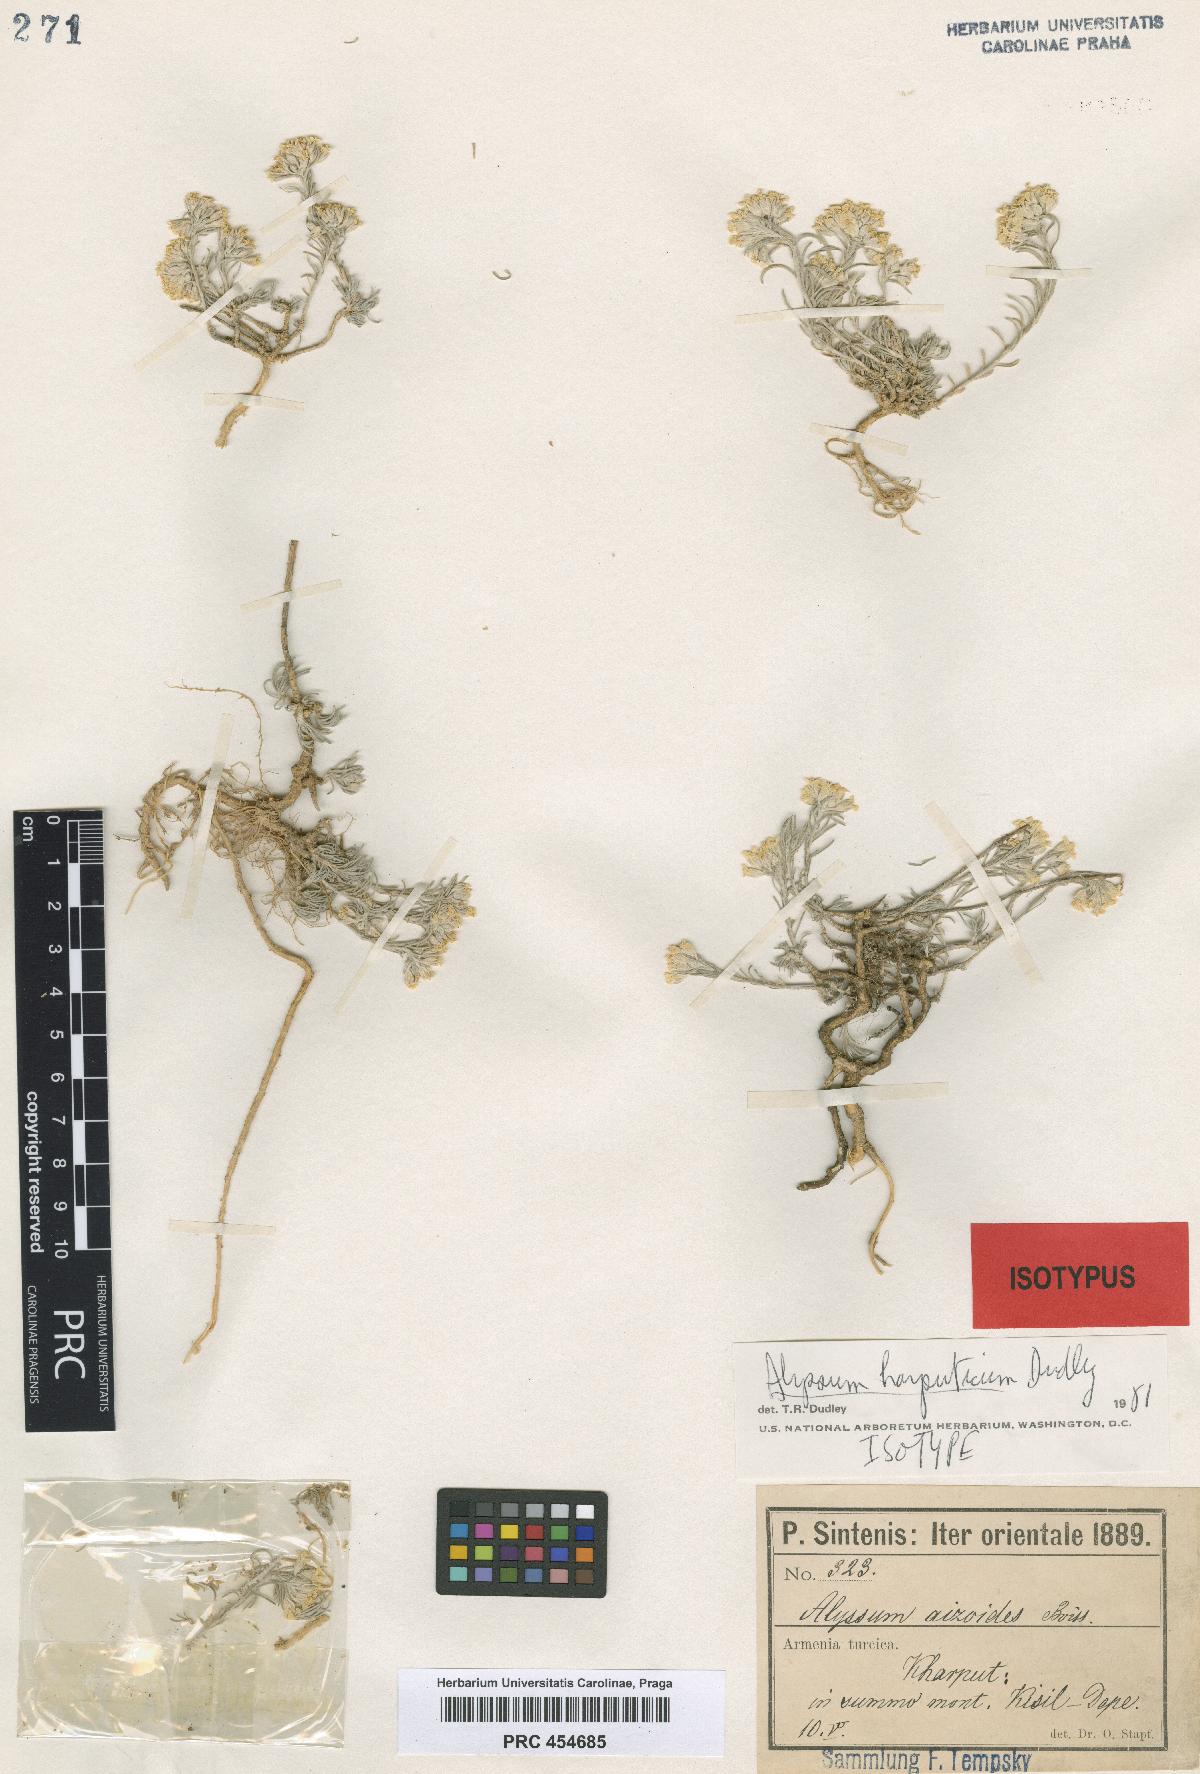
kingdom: Plantae
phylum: Tracheophyta
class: Magnoliopsida
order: Brassicales
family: Brassicaceae
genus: Alyssum
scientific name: Alyssum harputicum
